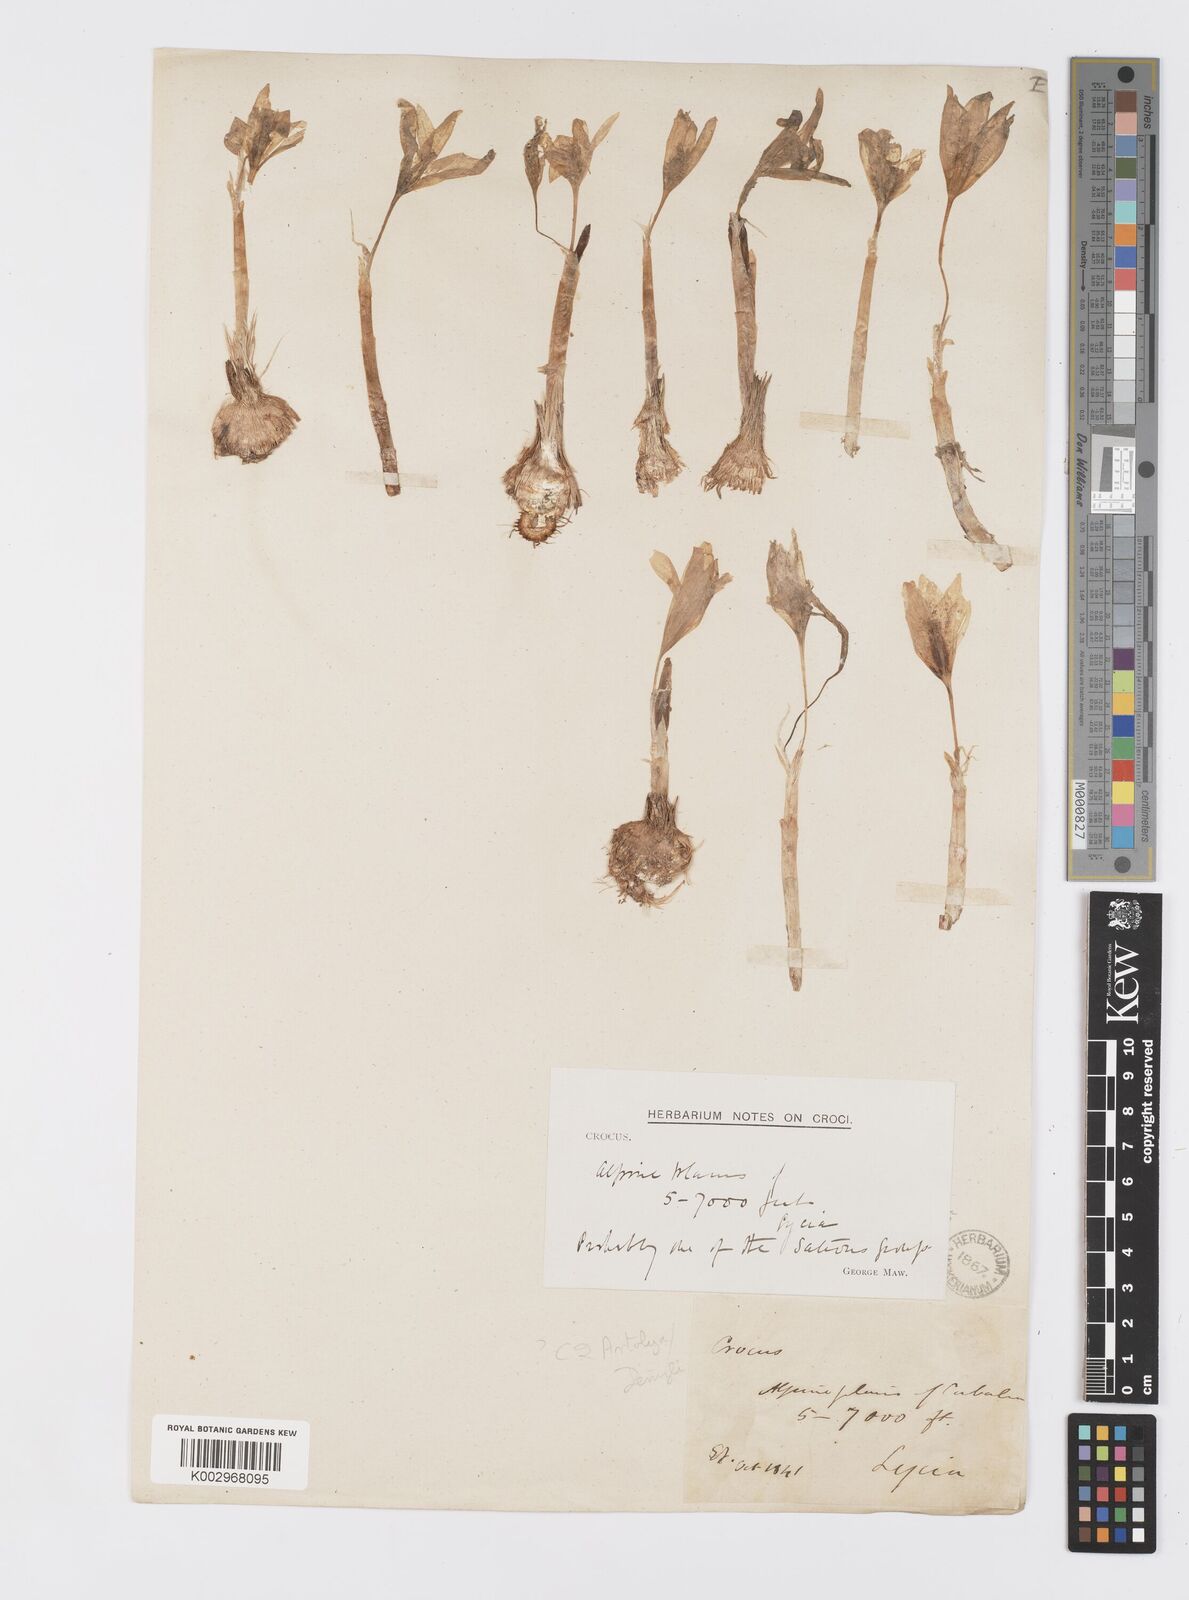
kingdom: Plantae
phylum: Tracheophyta
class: Liliopsida
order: Asparagales
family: Iridaceae
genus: Crocus
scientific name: Crocus
